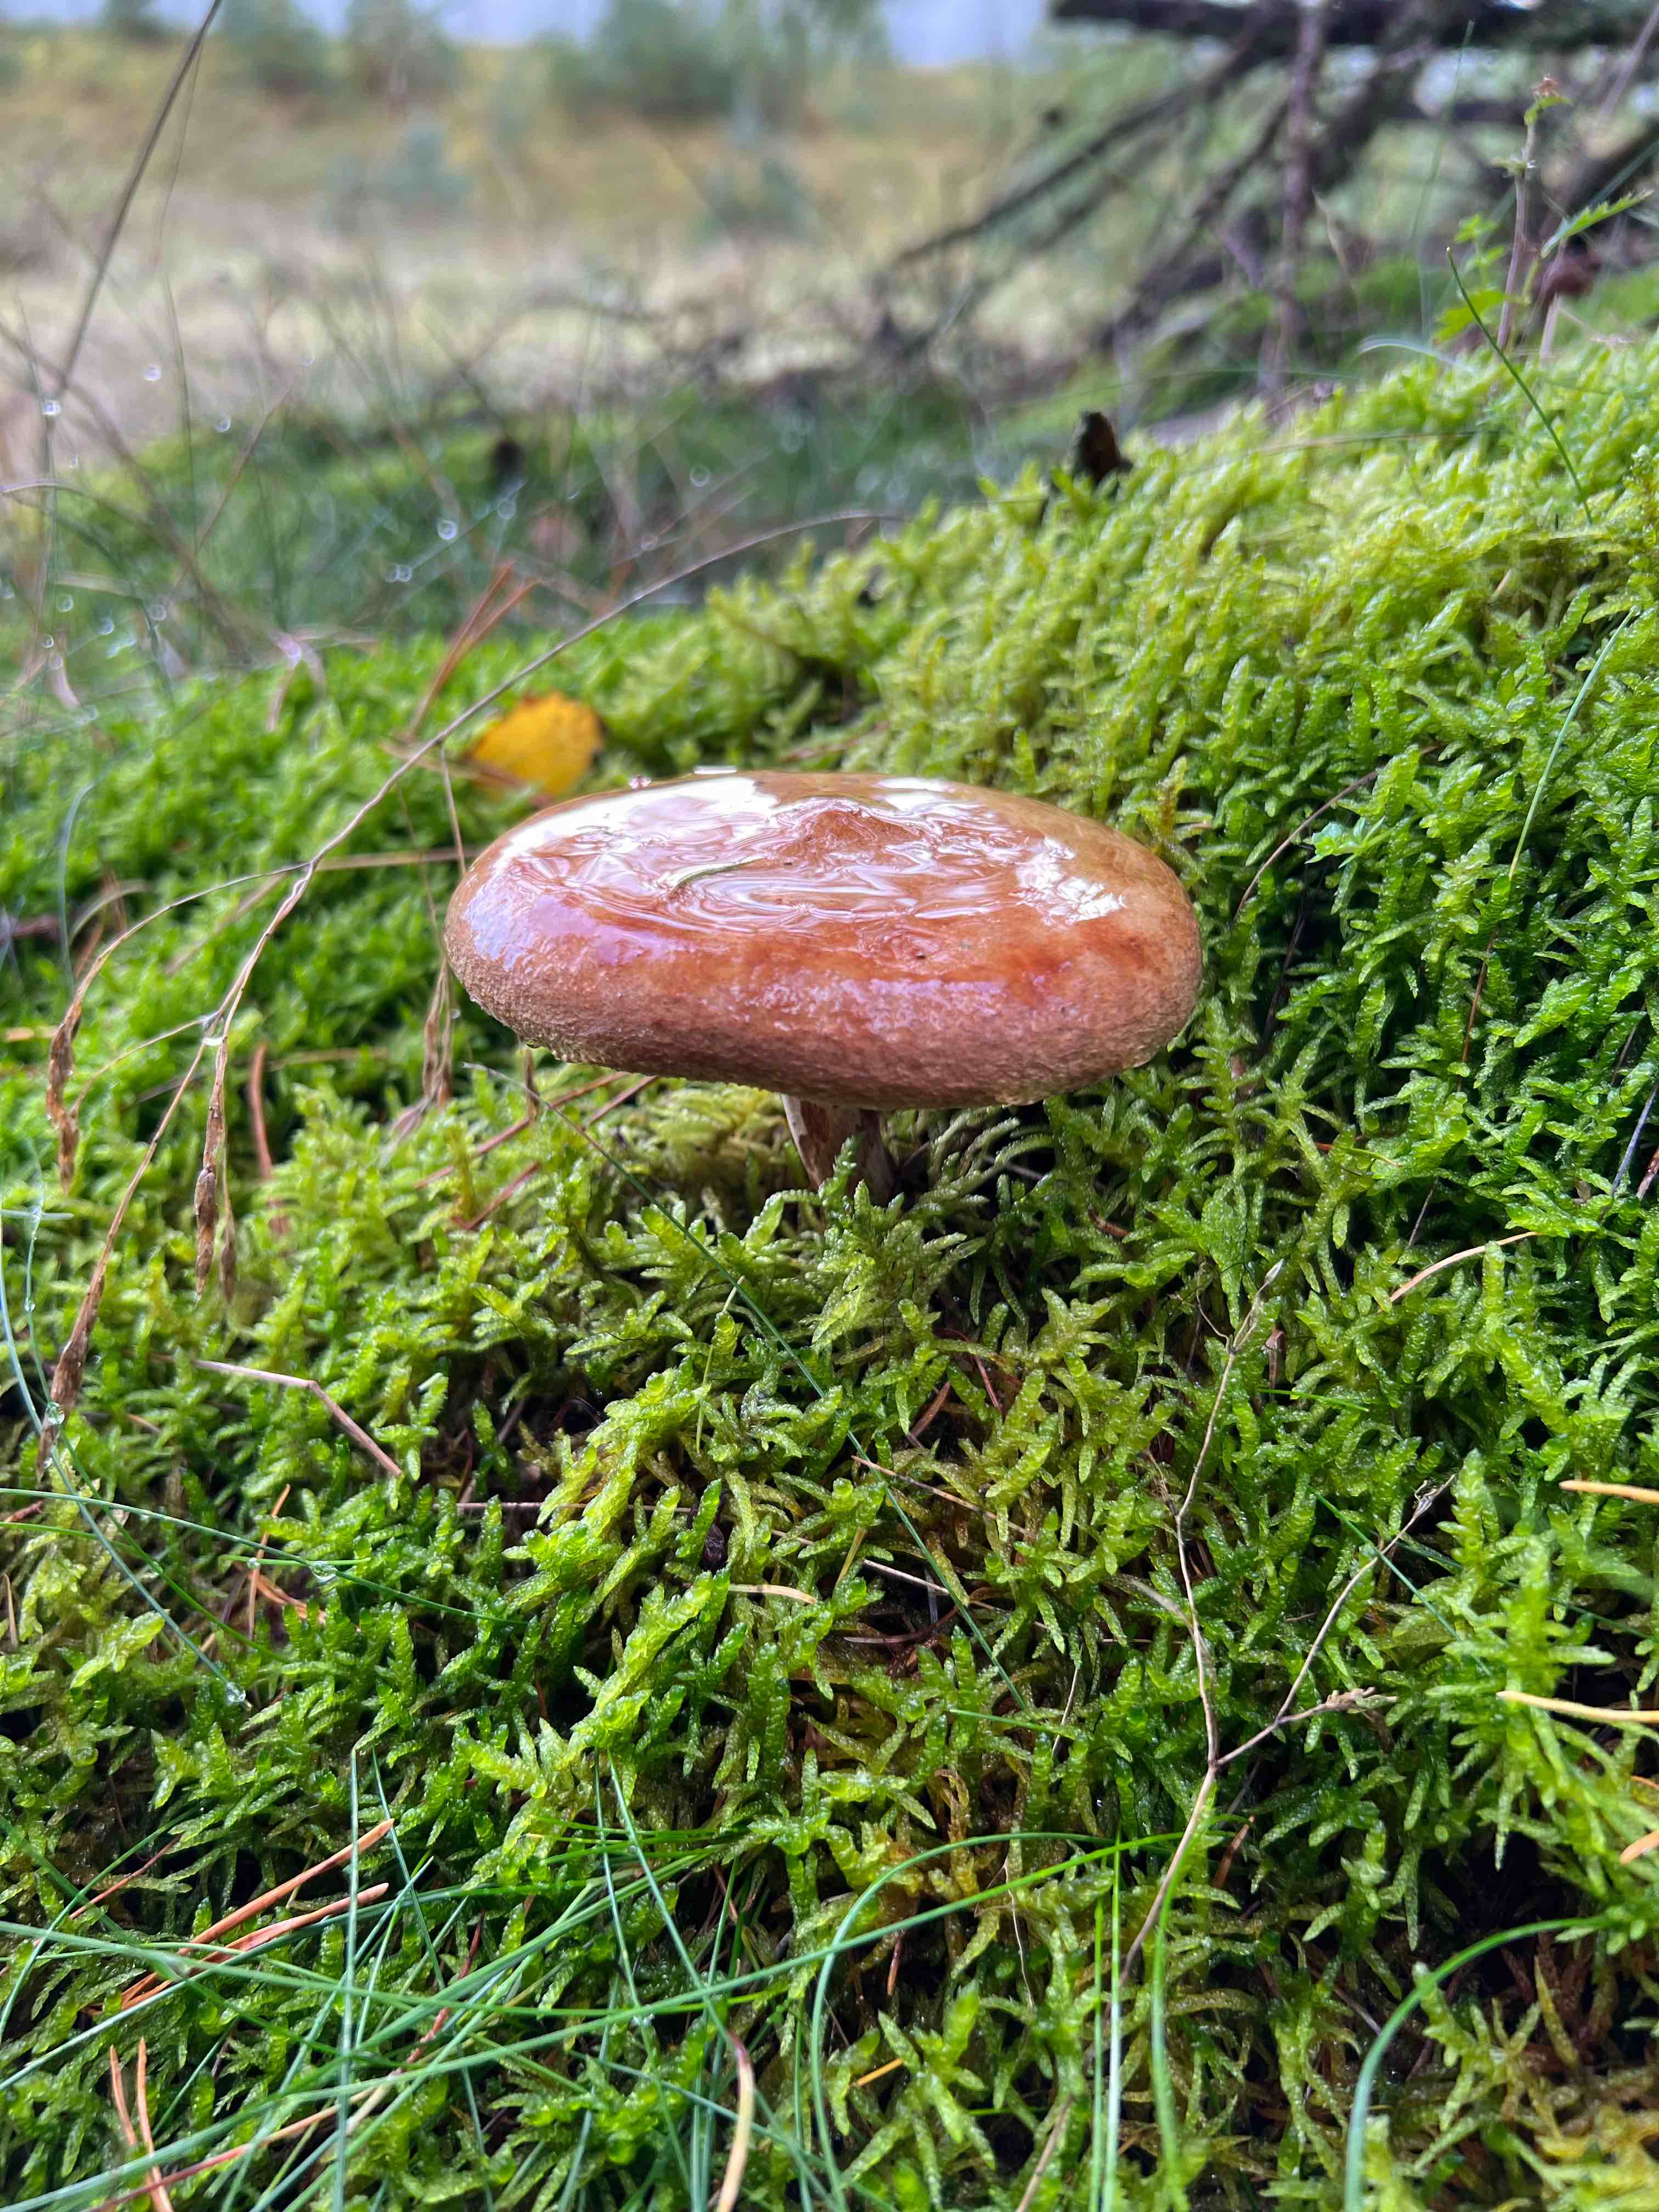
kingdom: Fungi
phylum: Basidiomycota
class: Agaricomycetes
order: Boletales
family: Paxillaceae
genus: Paxillus
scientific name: Paxillus involutus
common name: almindelig netbladhat
